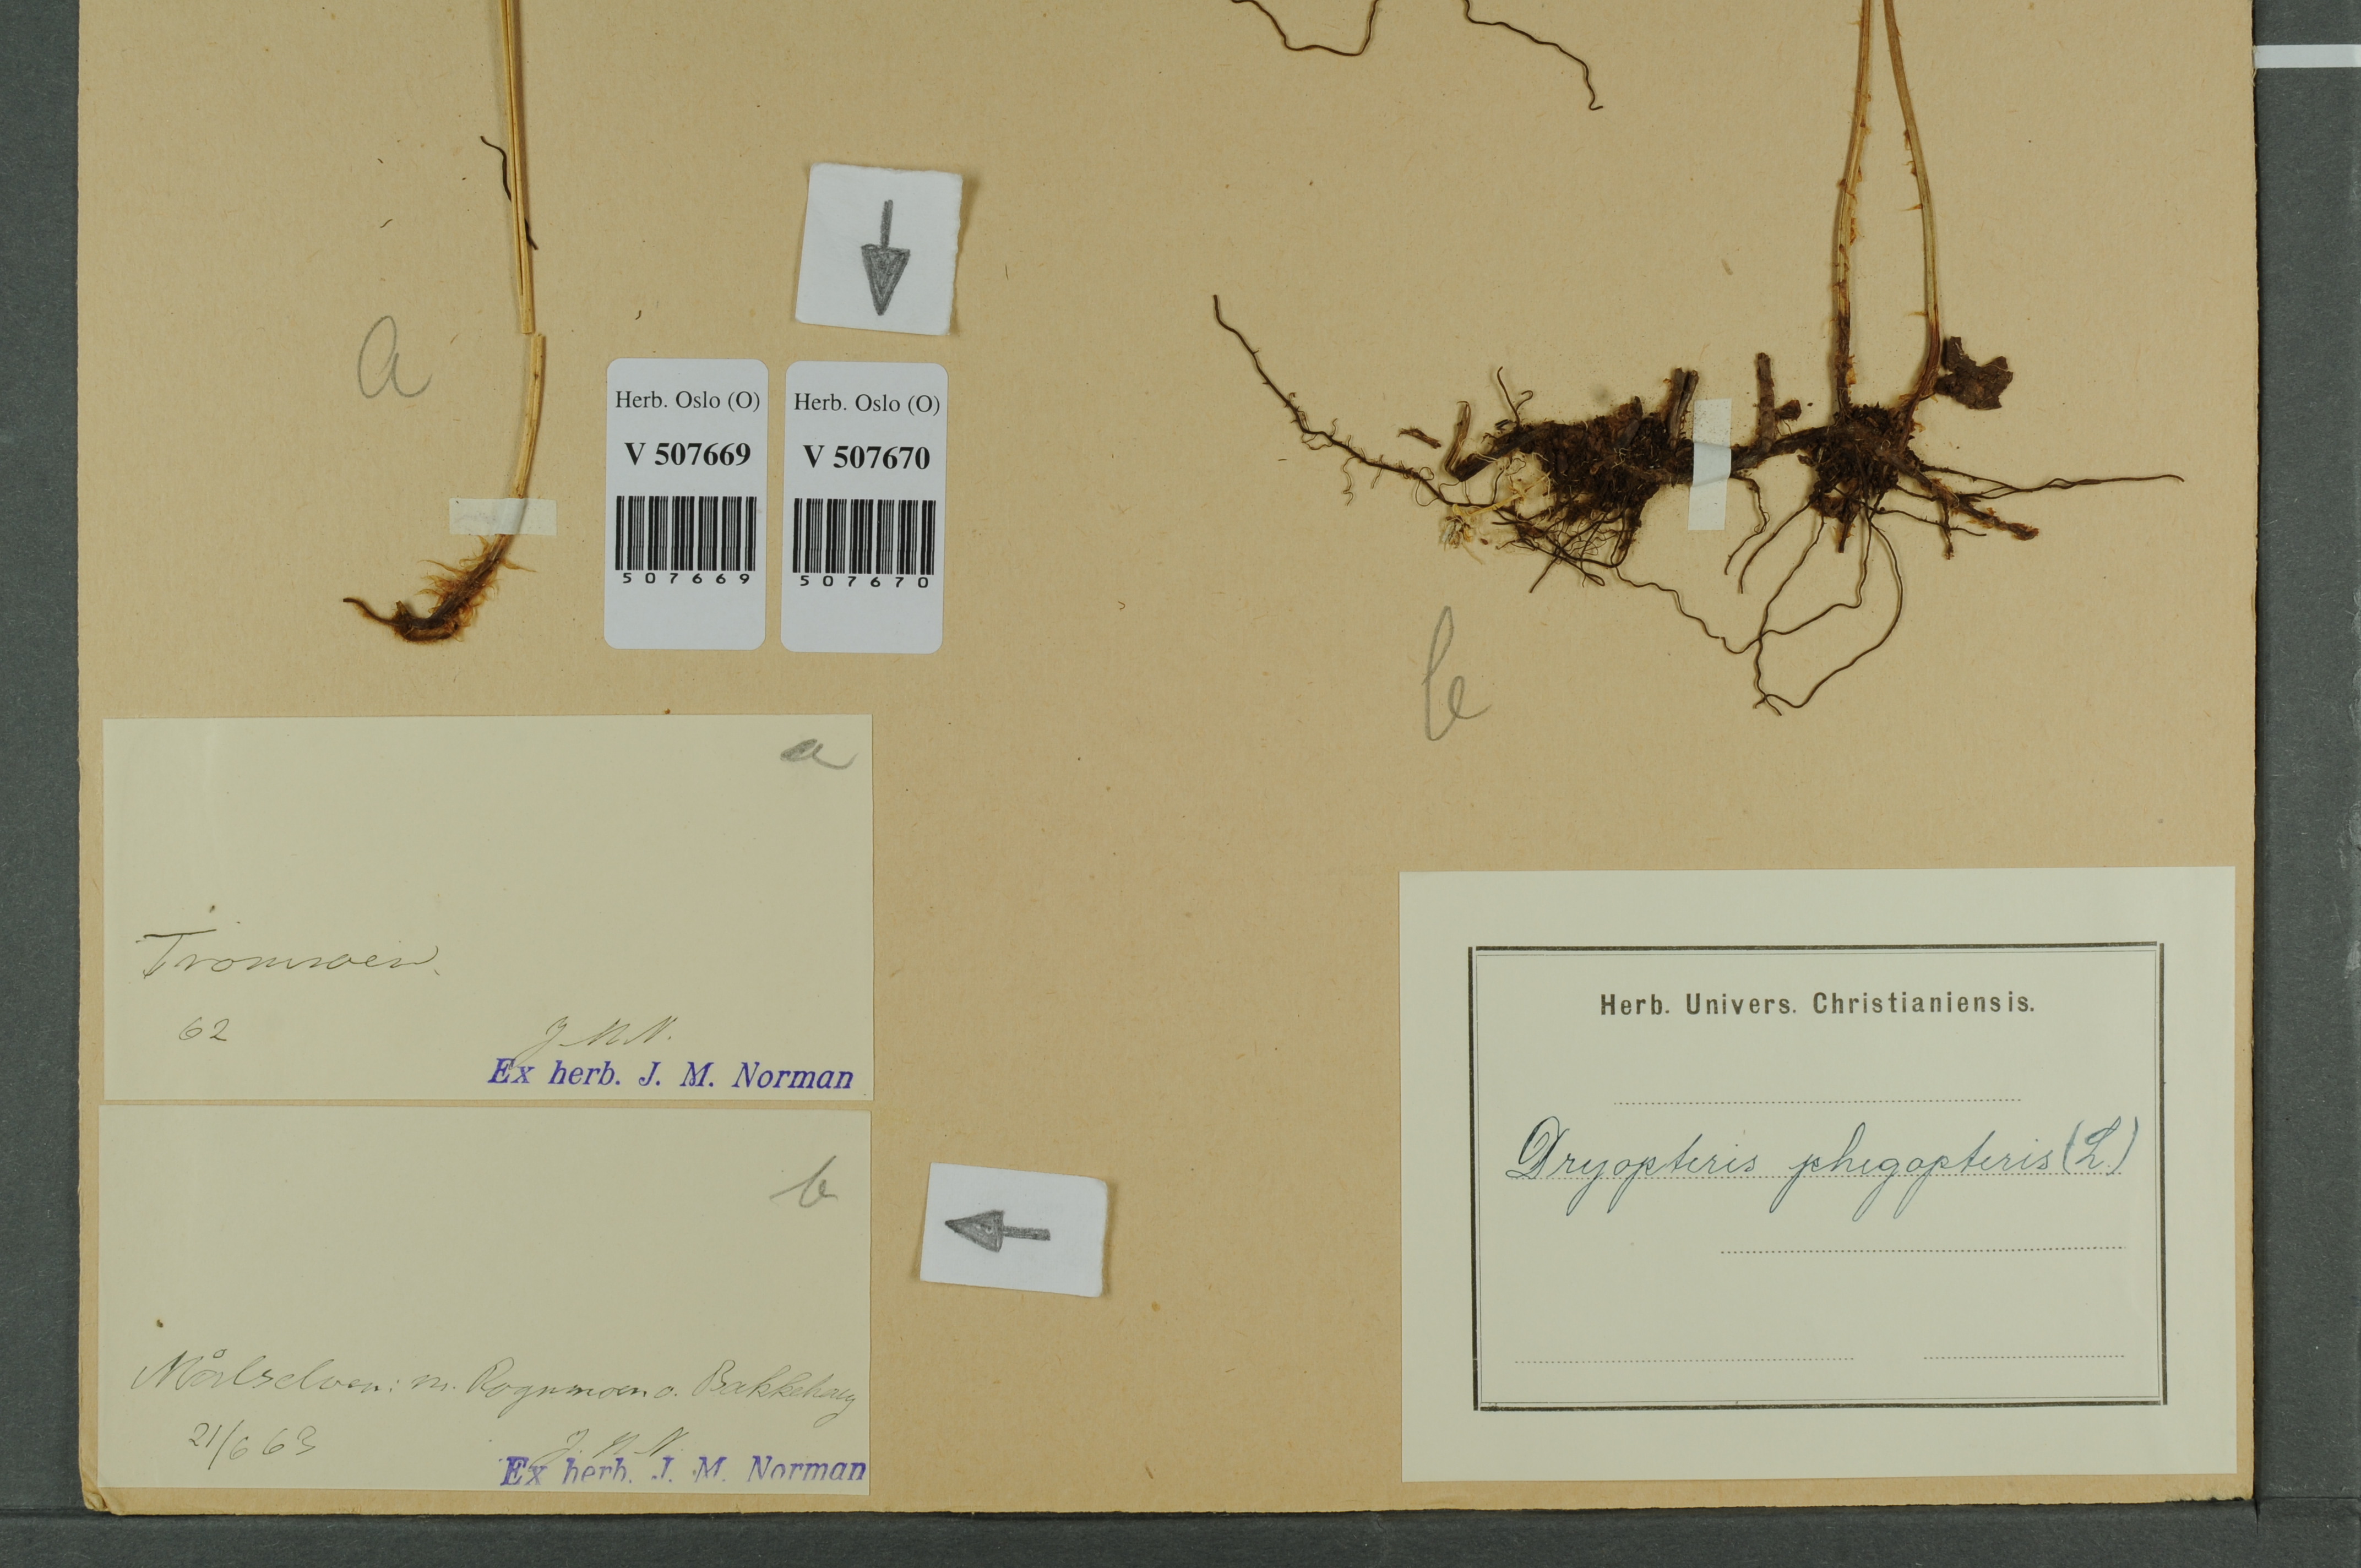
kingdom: Plantae
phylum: Tracheophyta
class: Polypodiopsida
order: Polypodiales
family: Thelypteridaceae
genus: Phegopteris
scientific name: Phegopteris connectilis
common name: Beech fern
